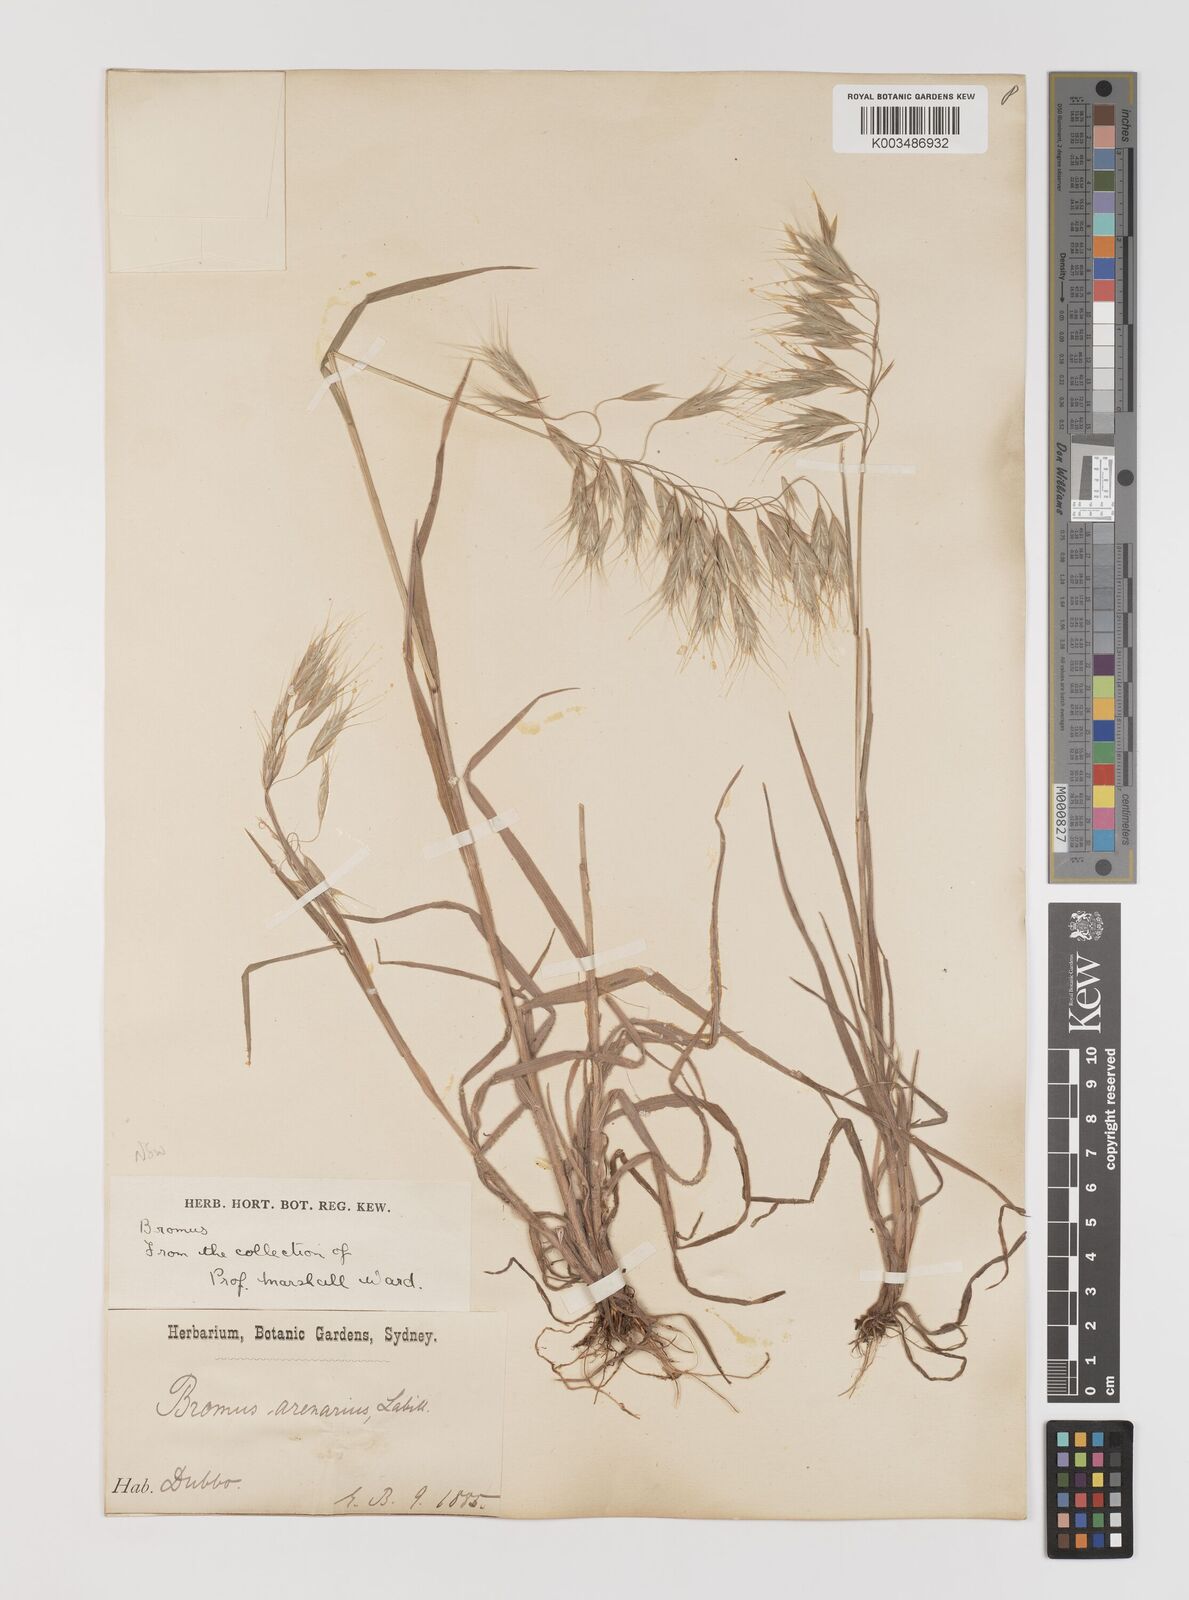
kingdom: Plantae
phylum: Tracheophyta
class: Liliopsida
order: Poales
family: Poaceae
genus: Bromus
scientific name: Bromus arenarius
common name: Australian brome
